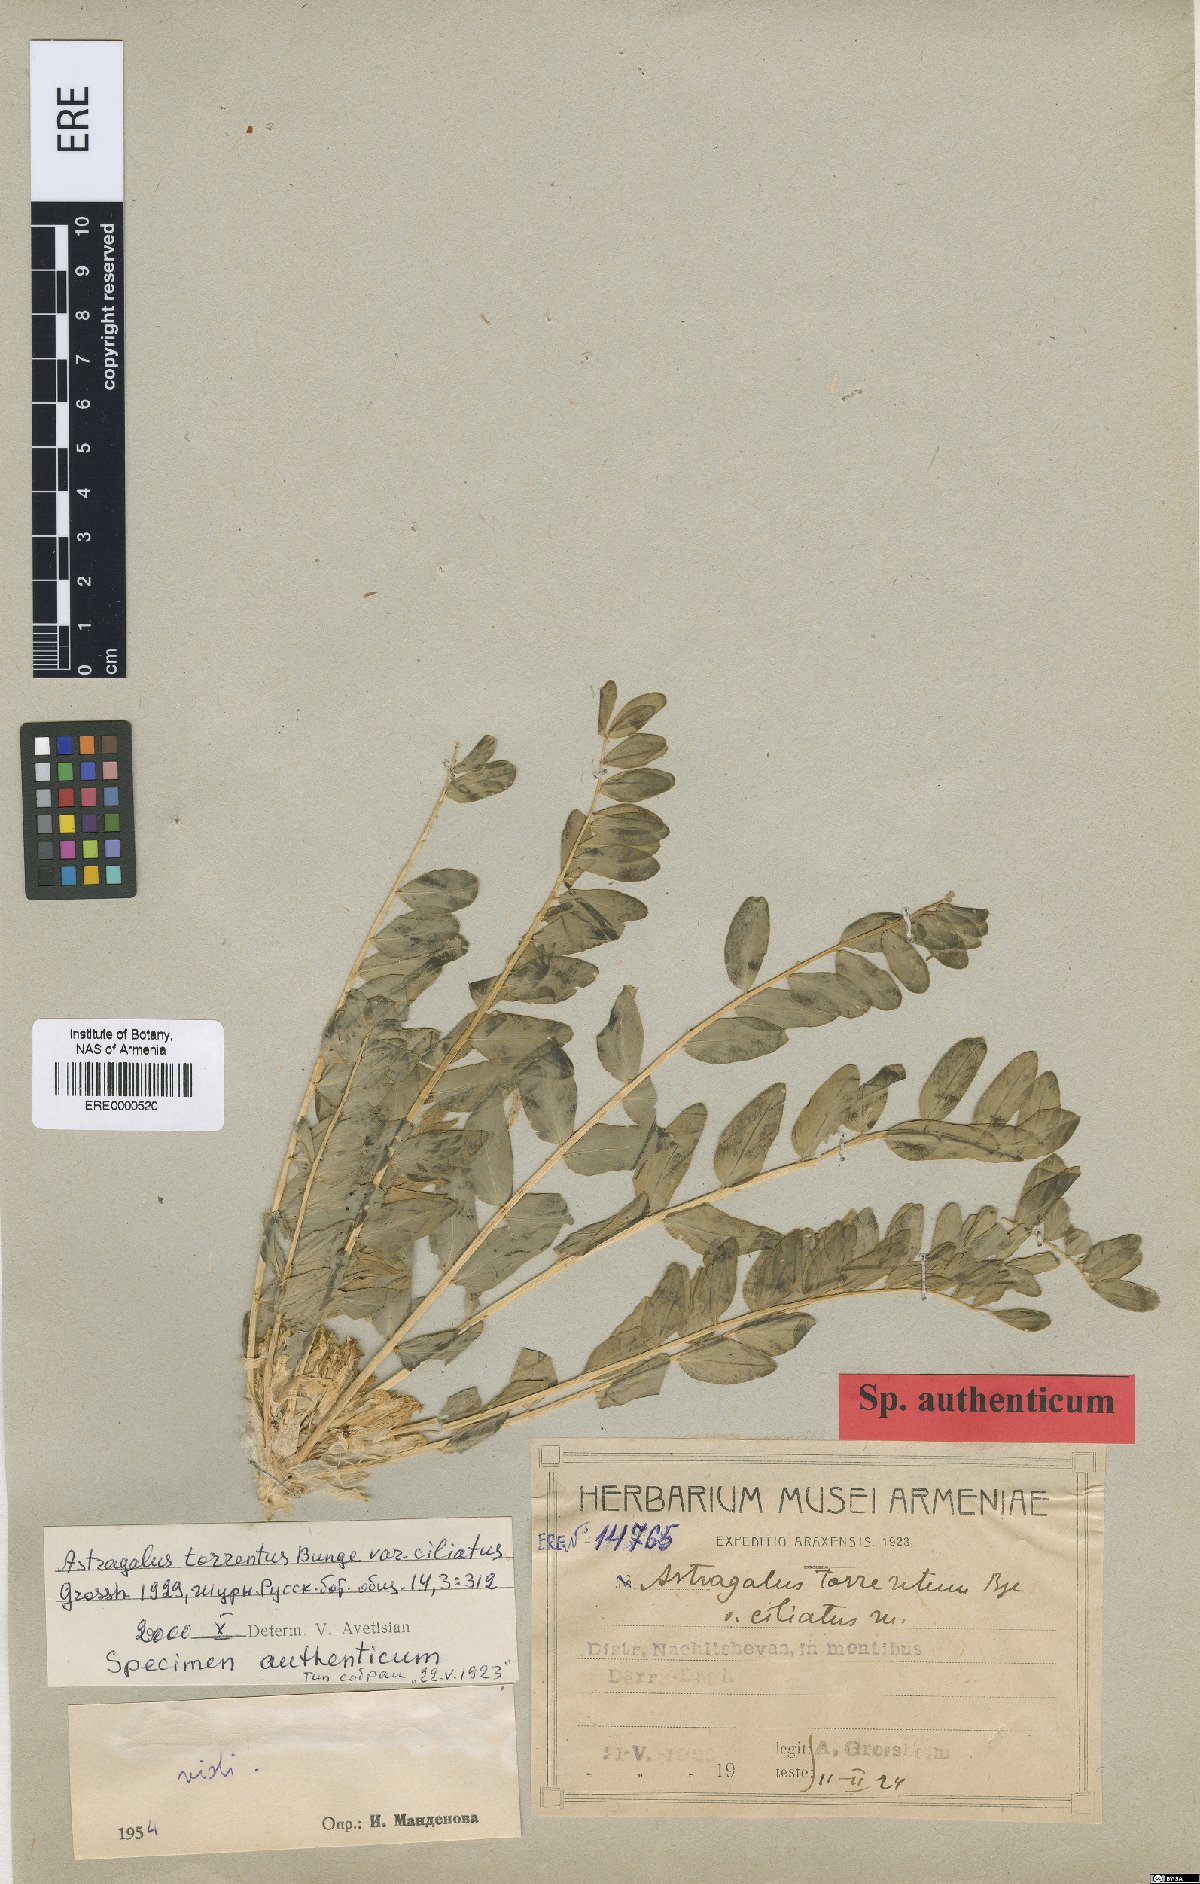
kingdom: Plantae
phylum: Tracheophyta
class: Magnoliopsida
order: Fabales
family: Fabaceae
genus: Astragalus
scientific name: Astragalus aegobromus
